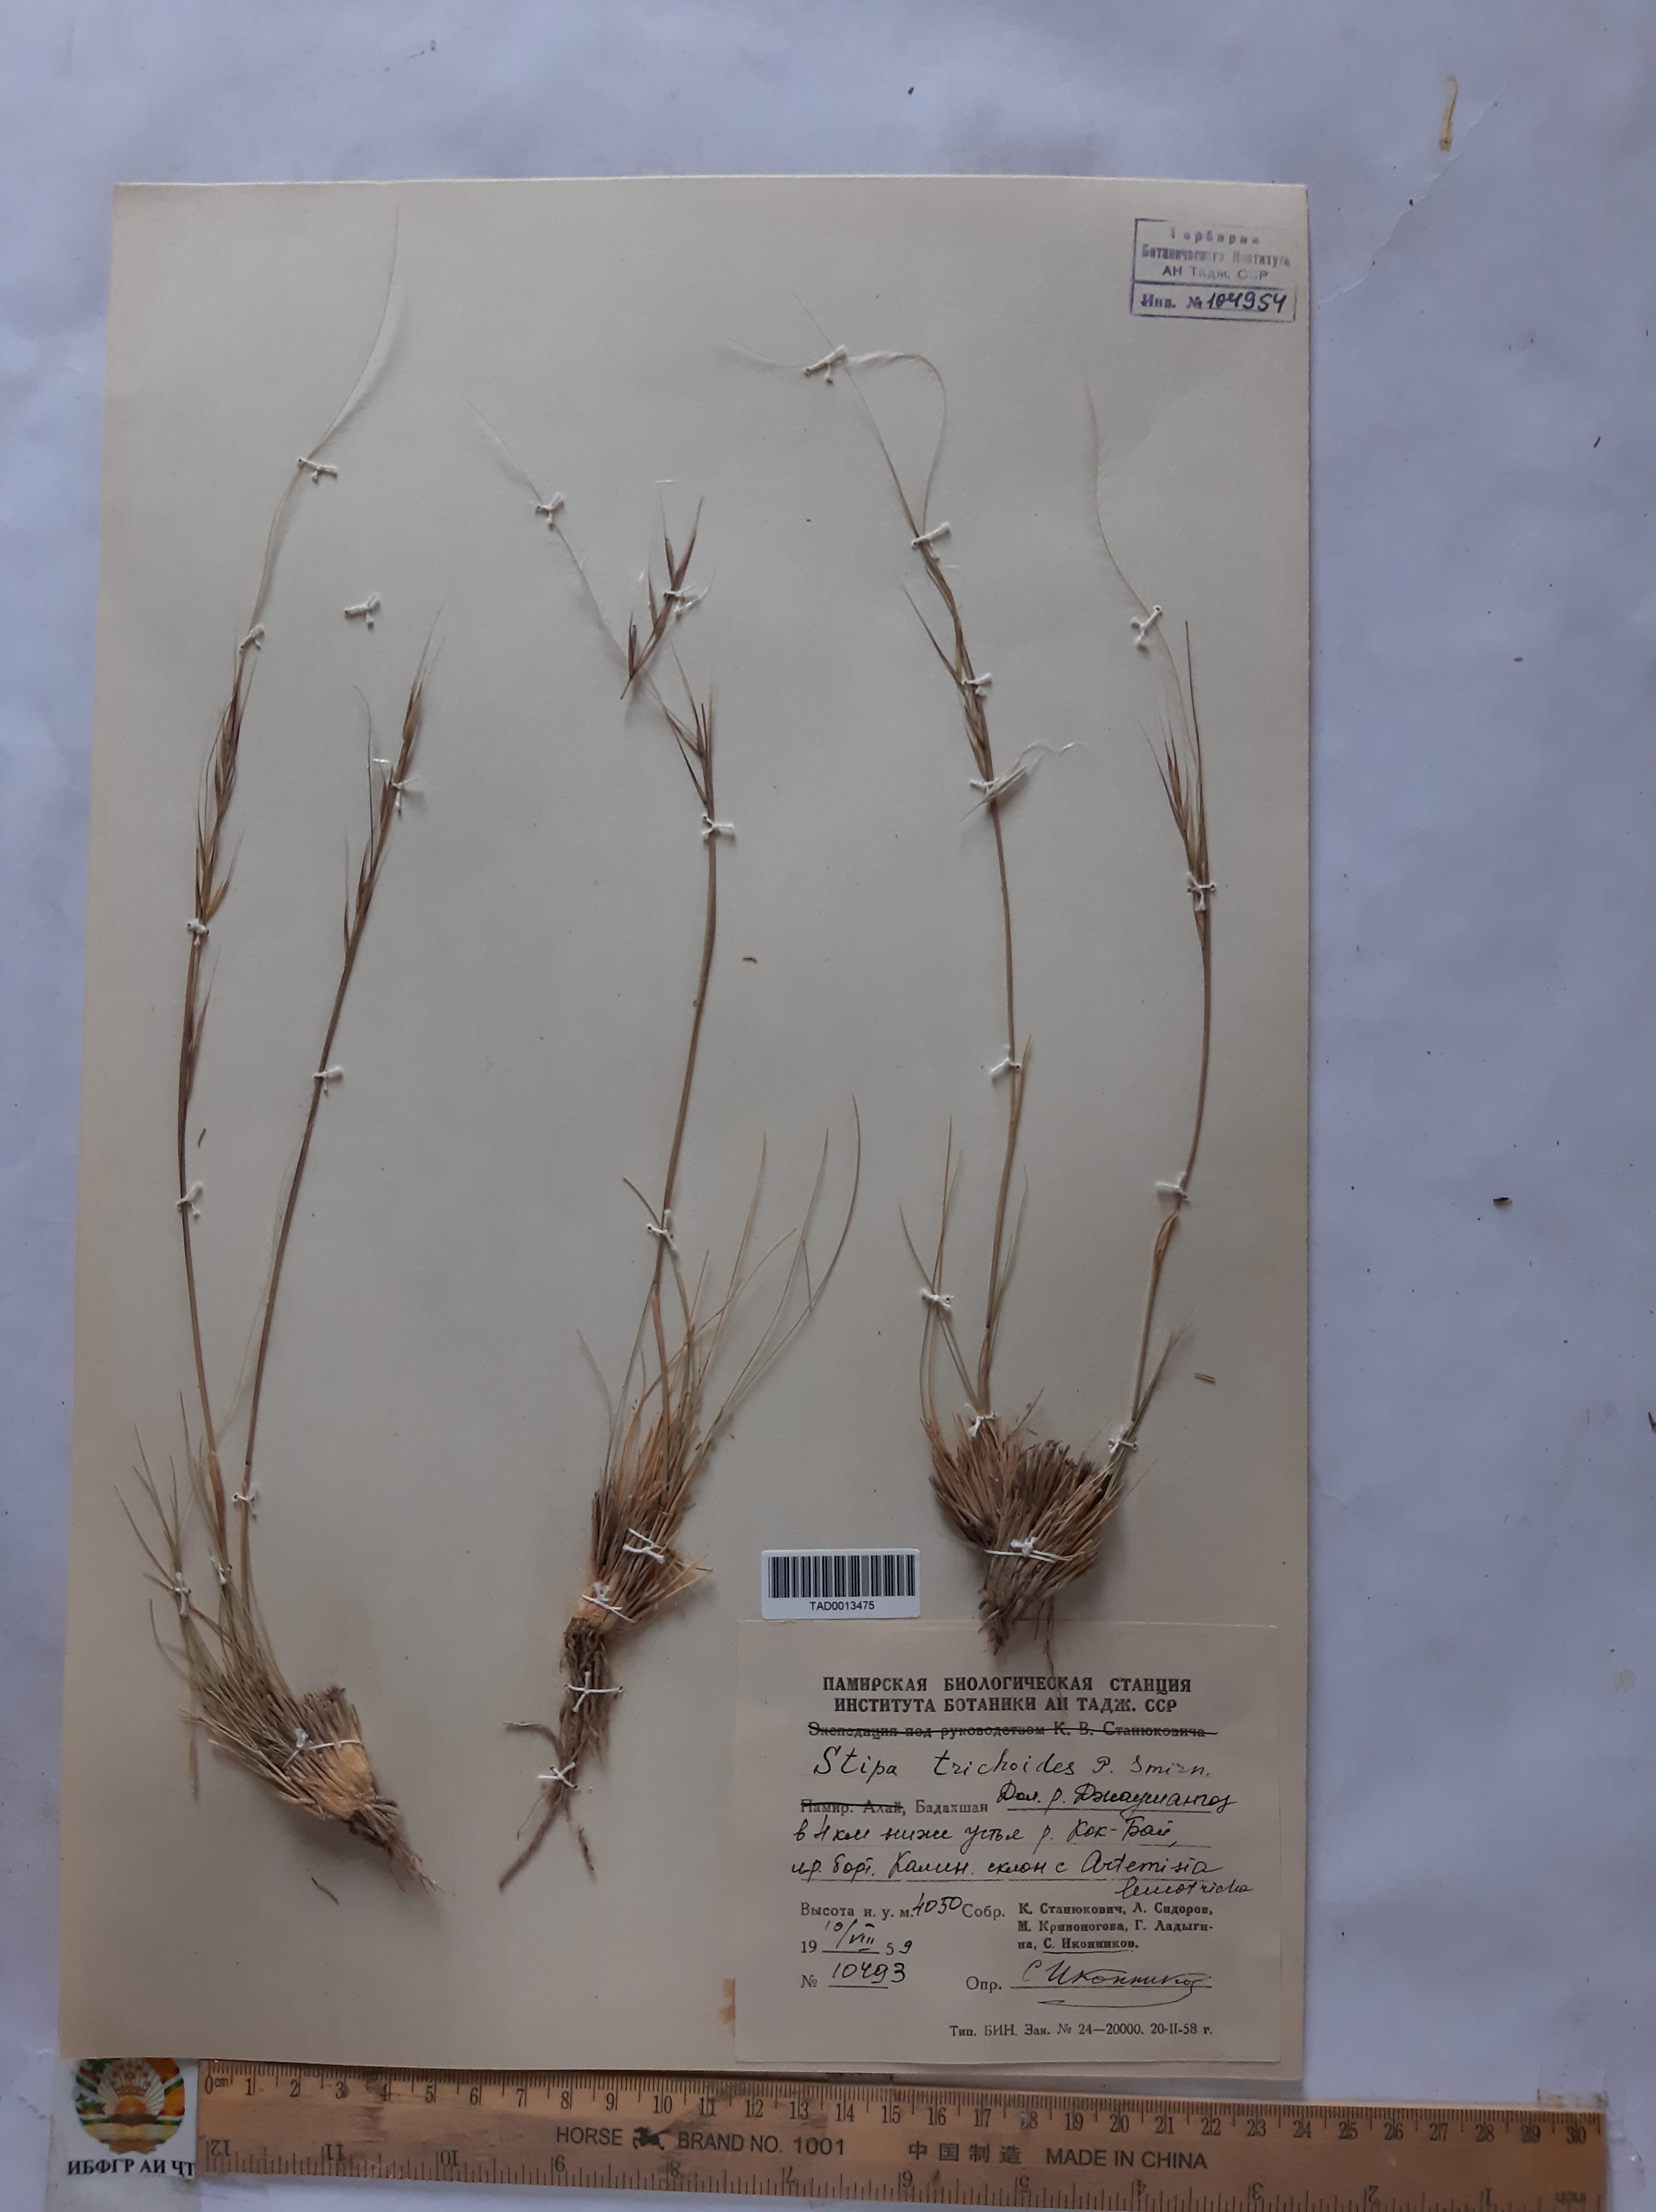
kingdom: Plantae
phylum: Tracheophyta
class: Liliopsida
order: Poales
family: Poaceae
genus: Stipa
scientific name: Stipa trichoides
